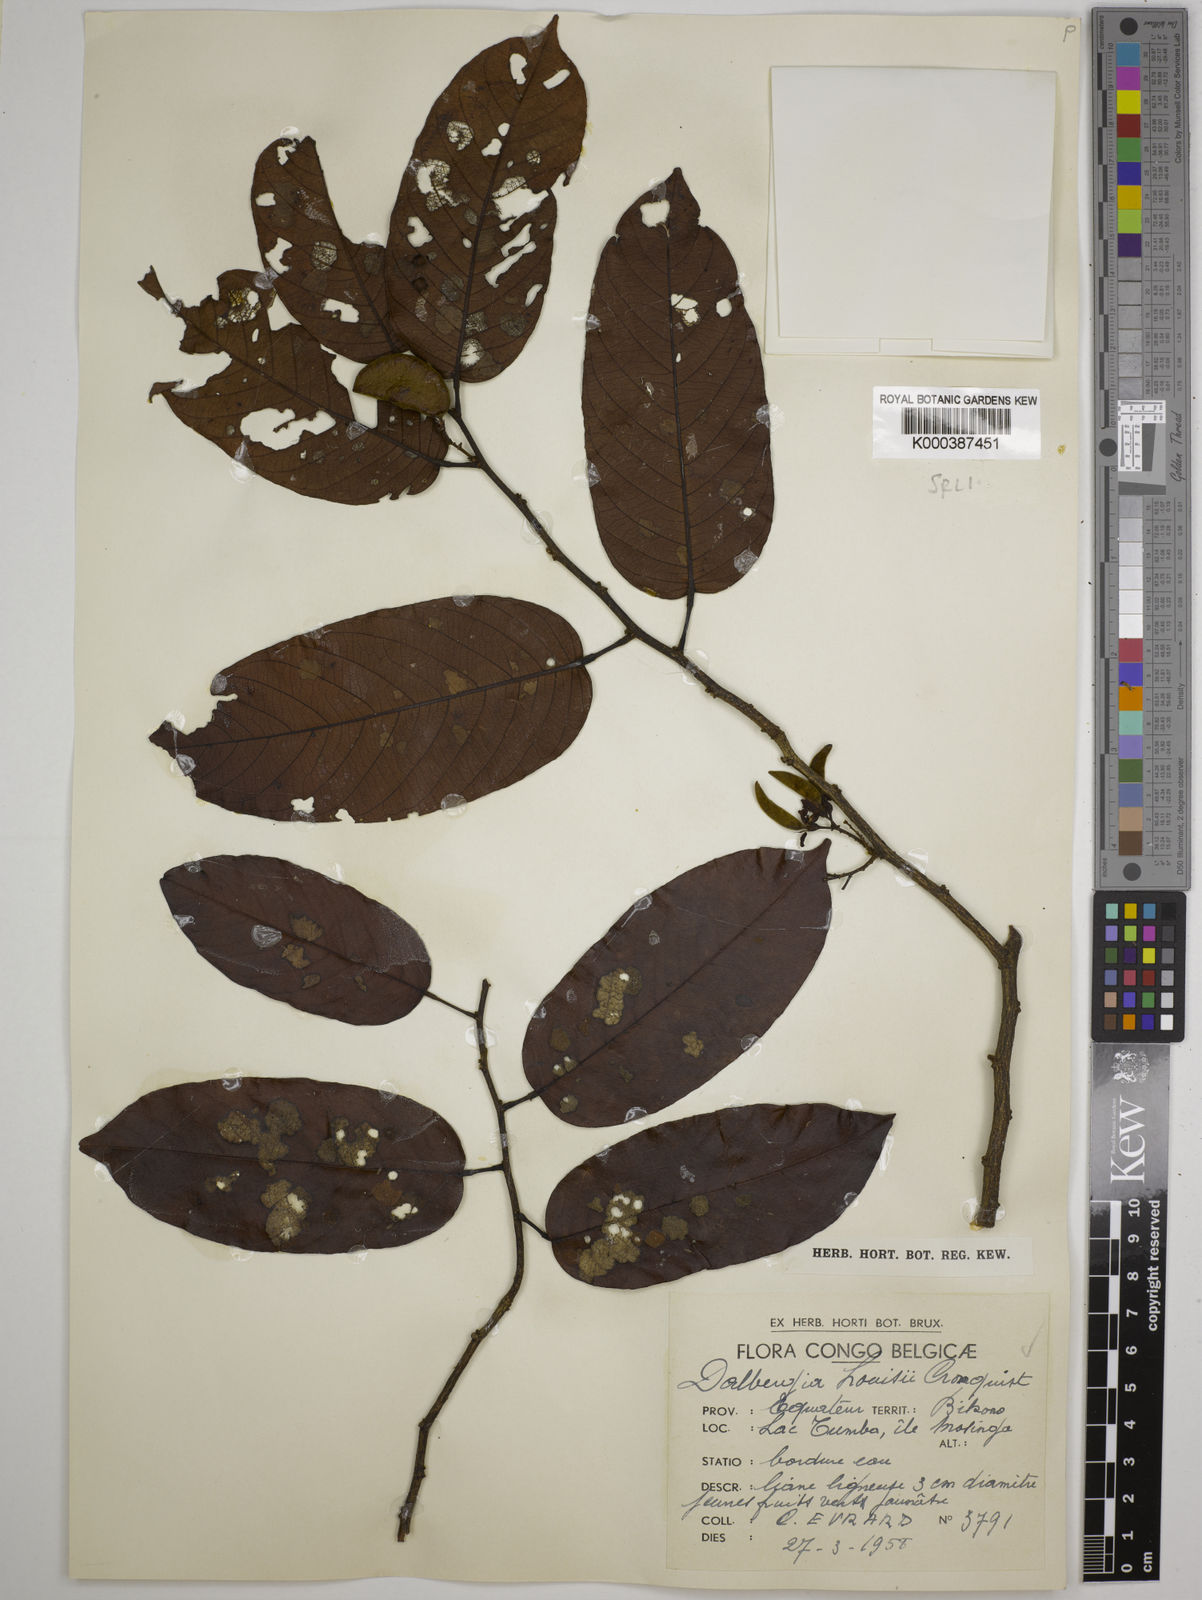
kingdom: Plantae
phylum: Tracheophyta
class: Magnoliopsida
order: Fabales
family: Fabaceae
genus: Dalbergia
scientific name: Dalbergia louisii
